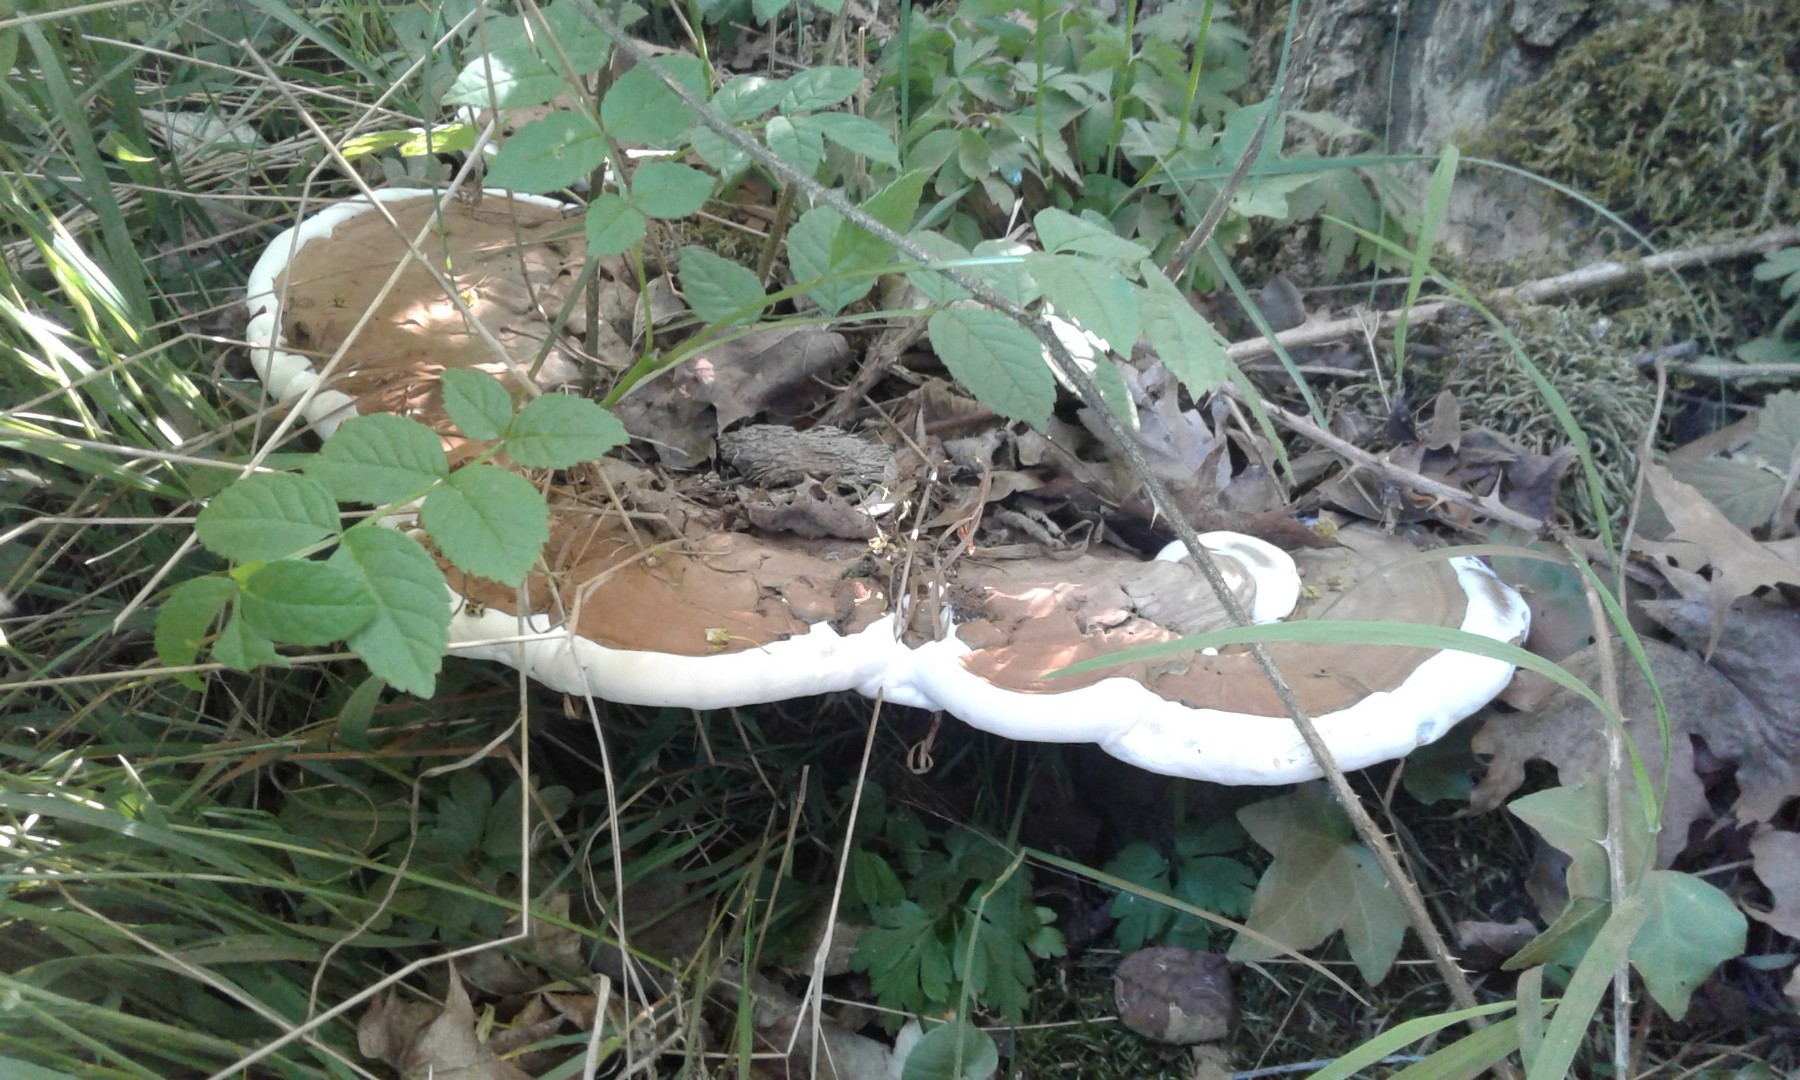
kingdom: Fungi
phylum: Basidiomycota
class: Agaricomycetes
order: Polyporales
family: Polyporaceae
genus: Ganoderma
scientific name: Ganoderma applanatum
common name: flad lakporesvamp
